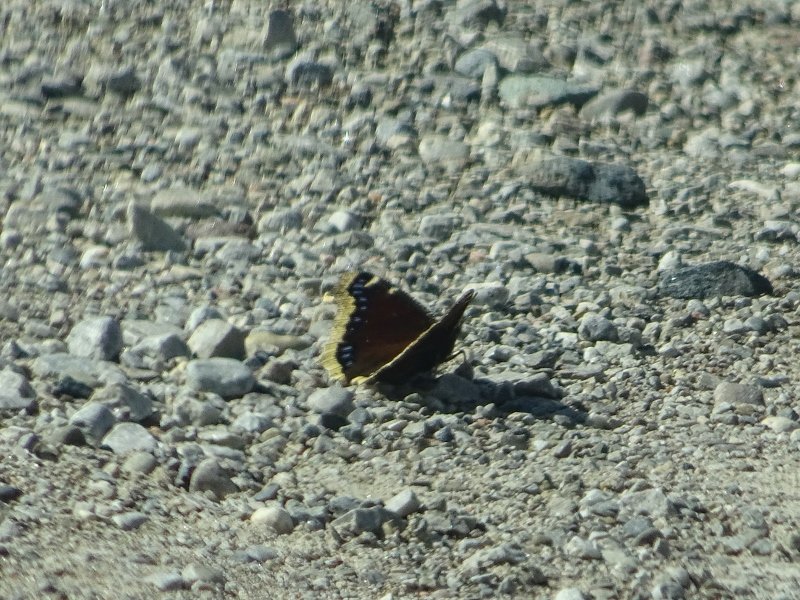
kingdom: Animalia
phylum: Arthropoda
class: Insecta
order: Lepidoptera
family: Nymphalidae
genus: Nymphalis
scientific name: Nymphalis antiopa
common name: Mourning Cloak
